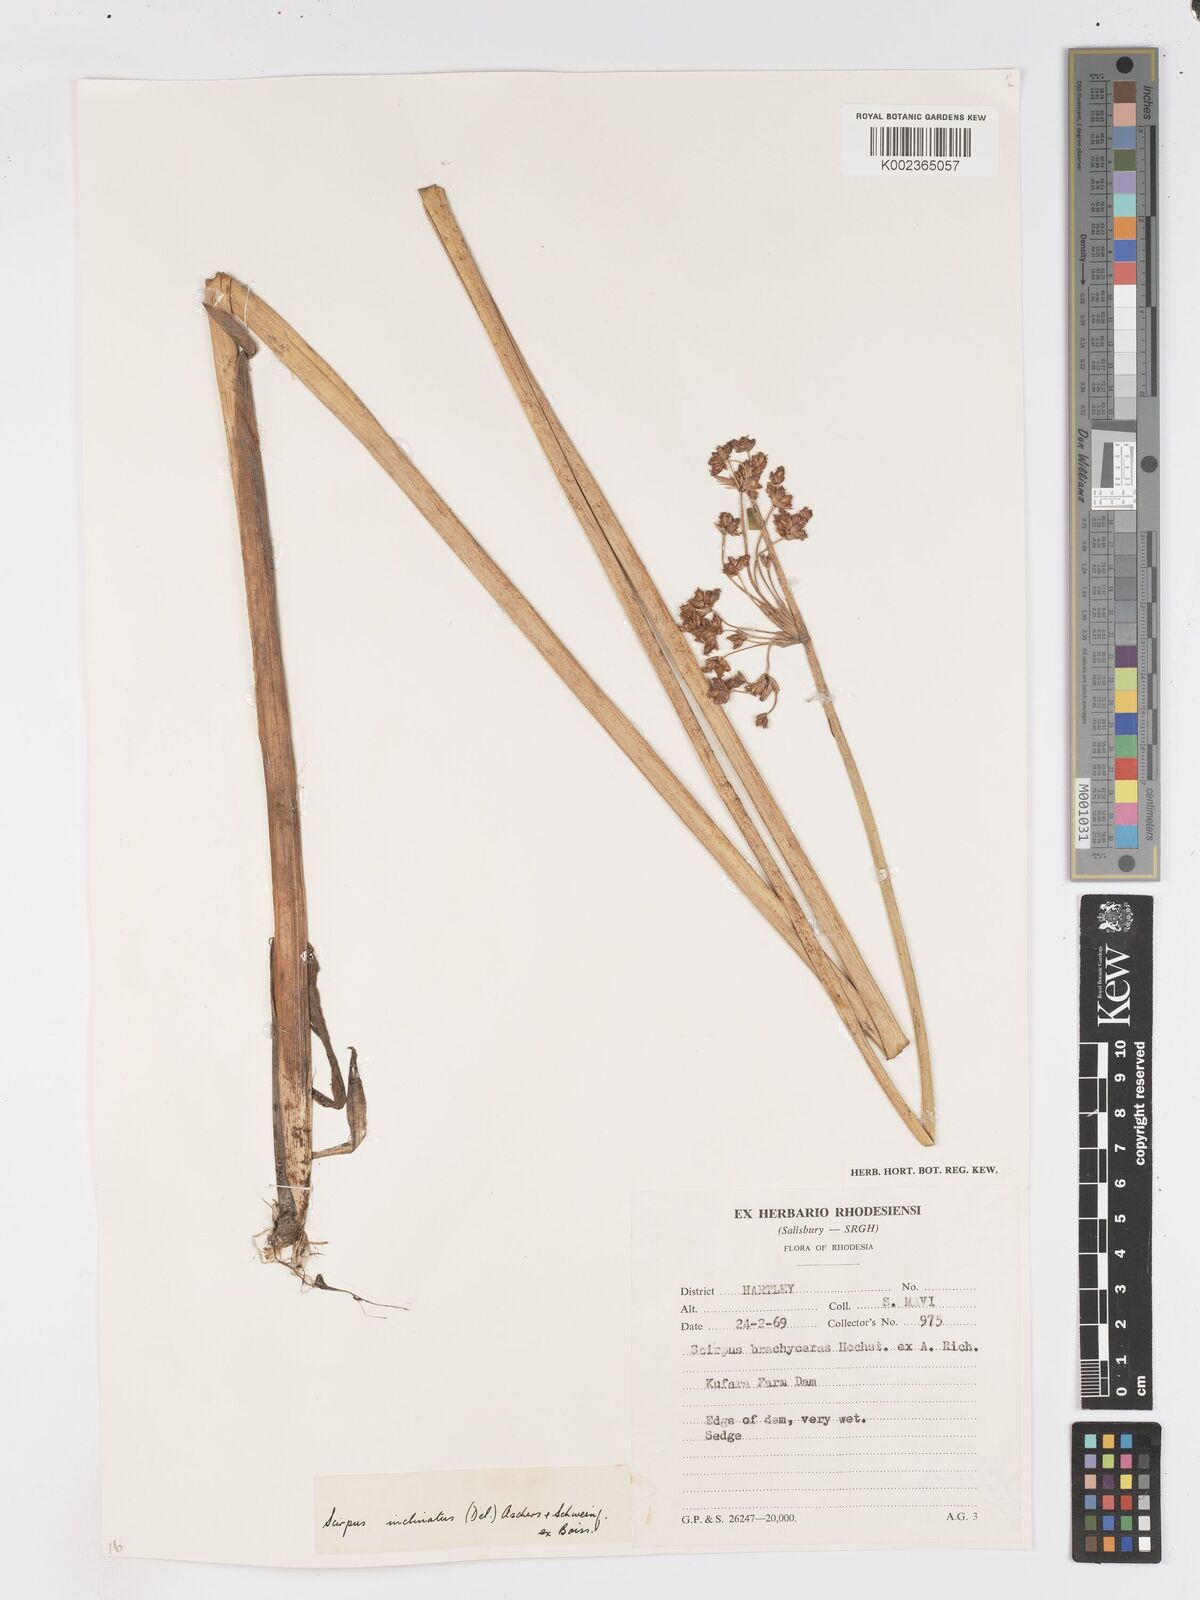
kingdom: Plantae
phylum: Tracheophyta
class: Liliopsida
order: Poales
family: Cyperaceae
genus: Schoenoplectiella
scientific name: Schoenoplectiella corymbosa
